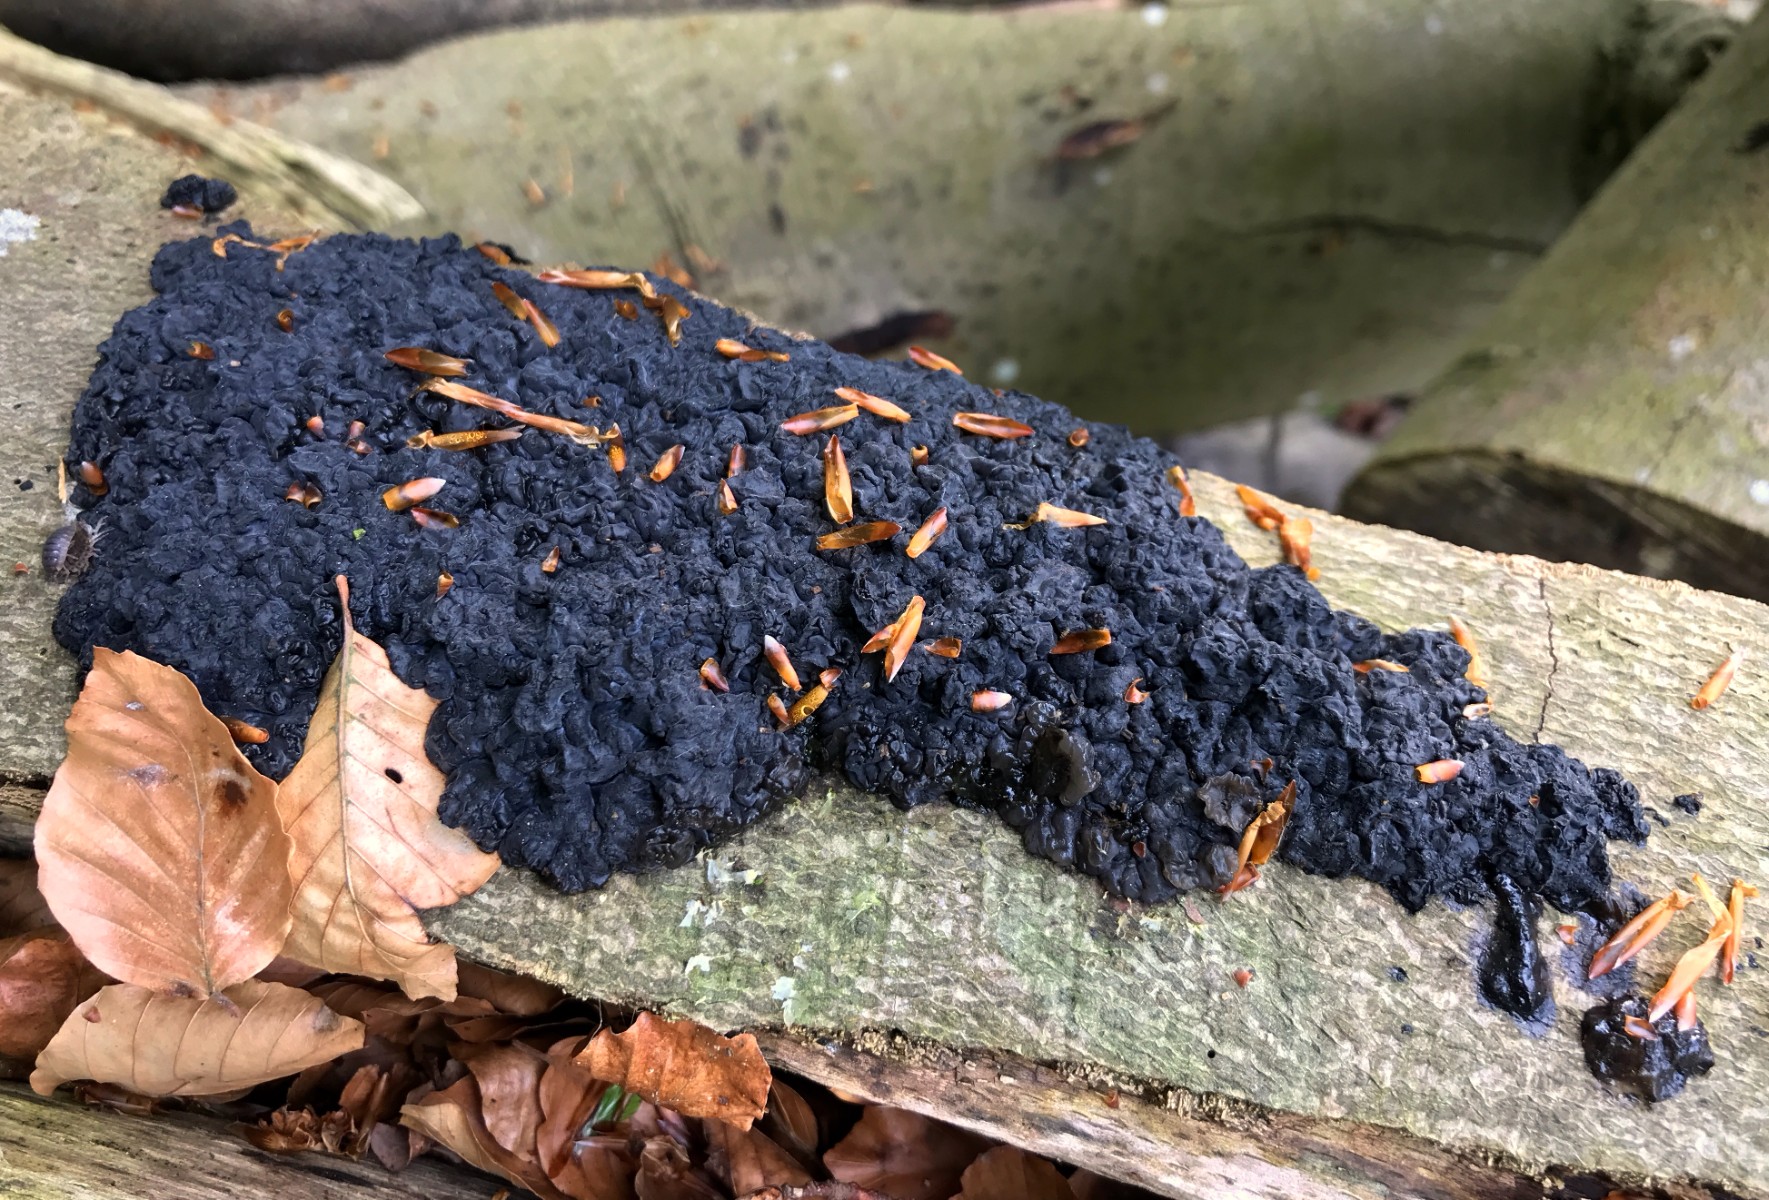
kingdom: Fungi
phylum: Basidiomycota
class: Agaricomycetes
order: Auriculariales
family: Auriculariaceae
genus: Exidia
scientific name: Exidia nigricans
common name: almindelig bævretop
